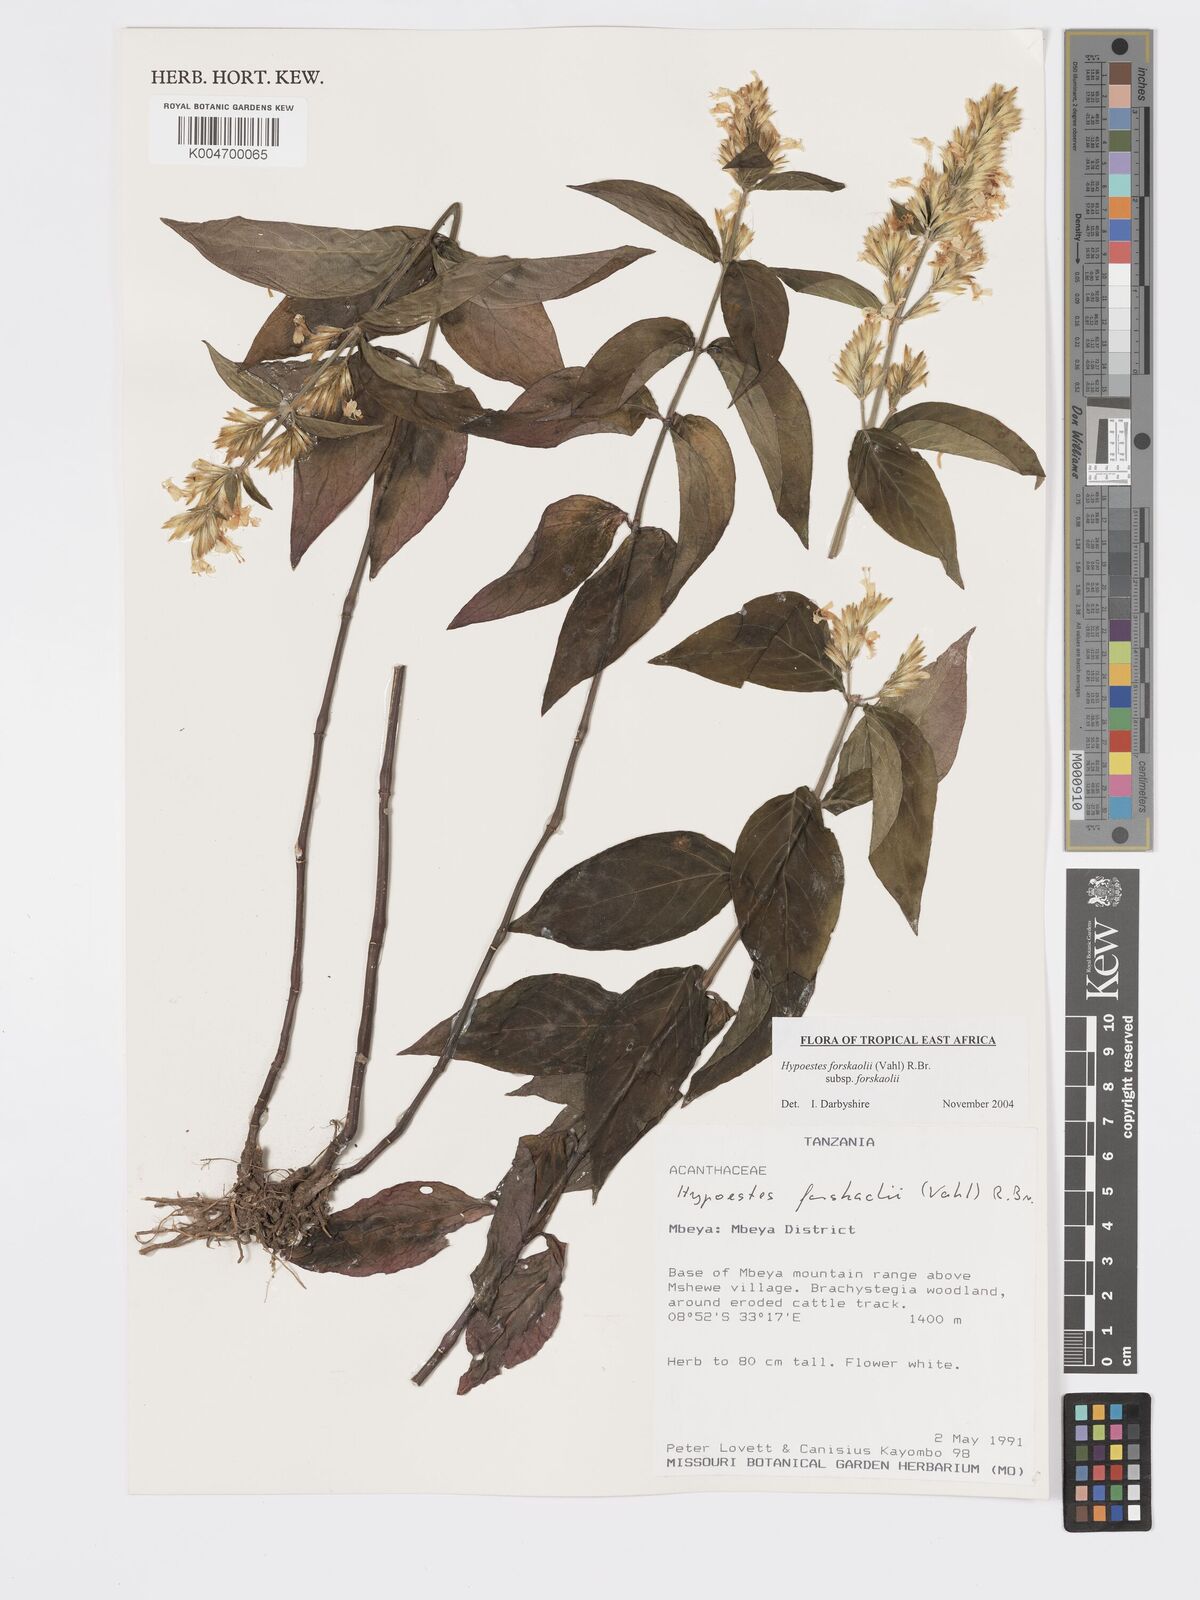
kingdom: Plantae
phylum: Tracheophyta
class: Magnoliopsida
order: Lamiales
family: Acanthaceae
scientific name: Acanthaceae
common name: Acanthaceae
